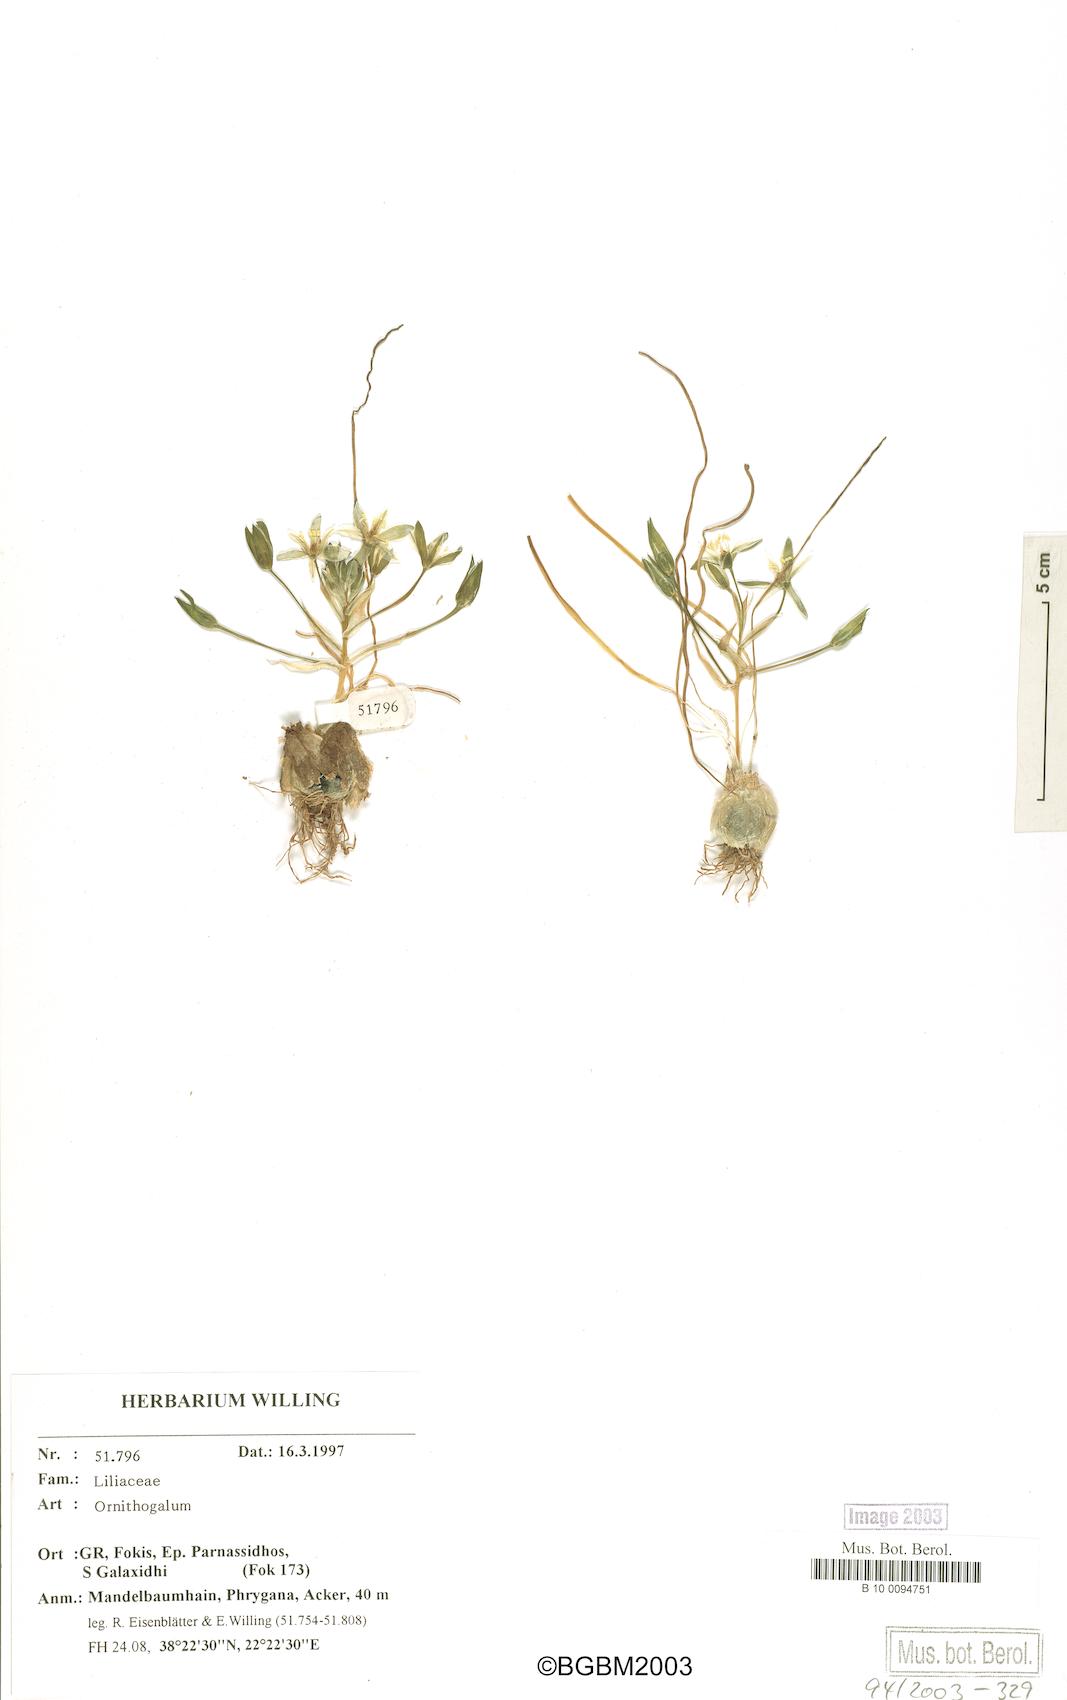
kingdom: Plantae
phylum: Tracheophyta
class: Liliopsida
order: Asparagales
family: Asparagaceae
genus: Ornithogalum
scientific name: Ornithogalum
